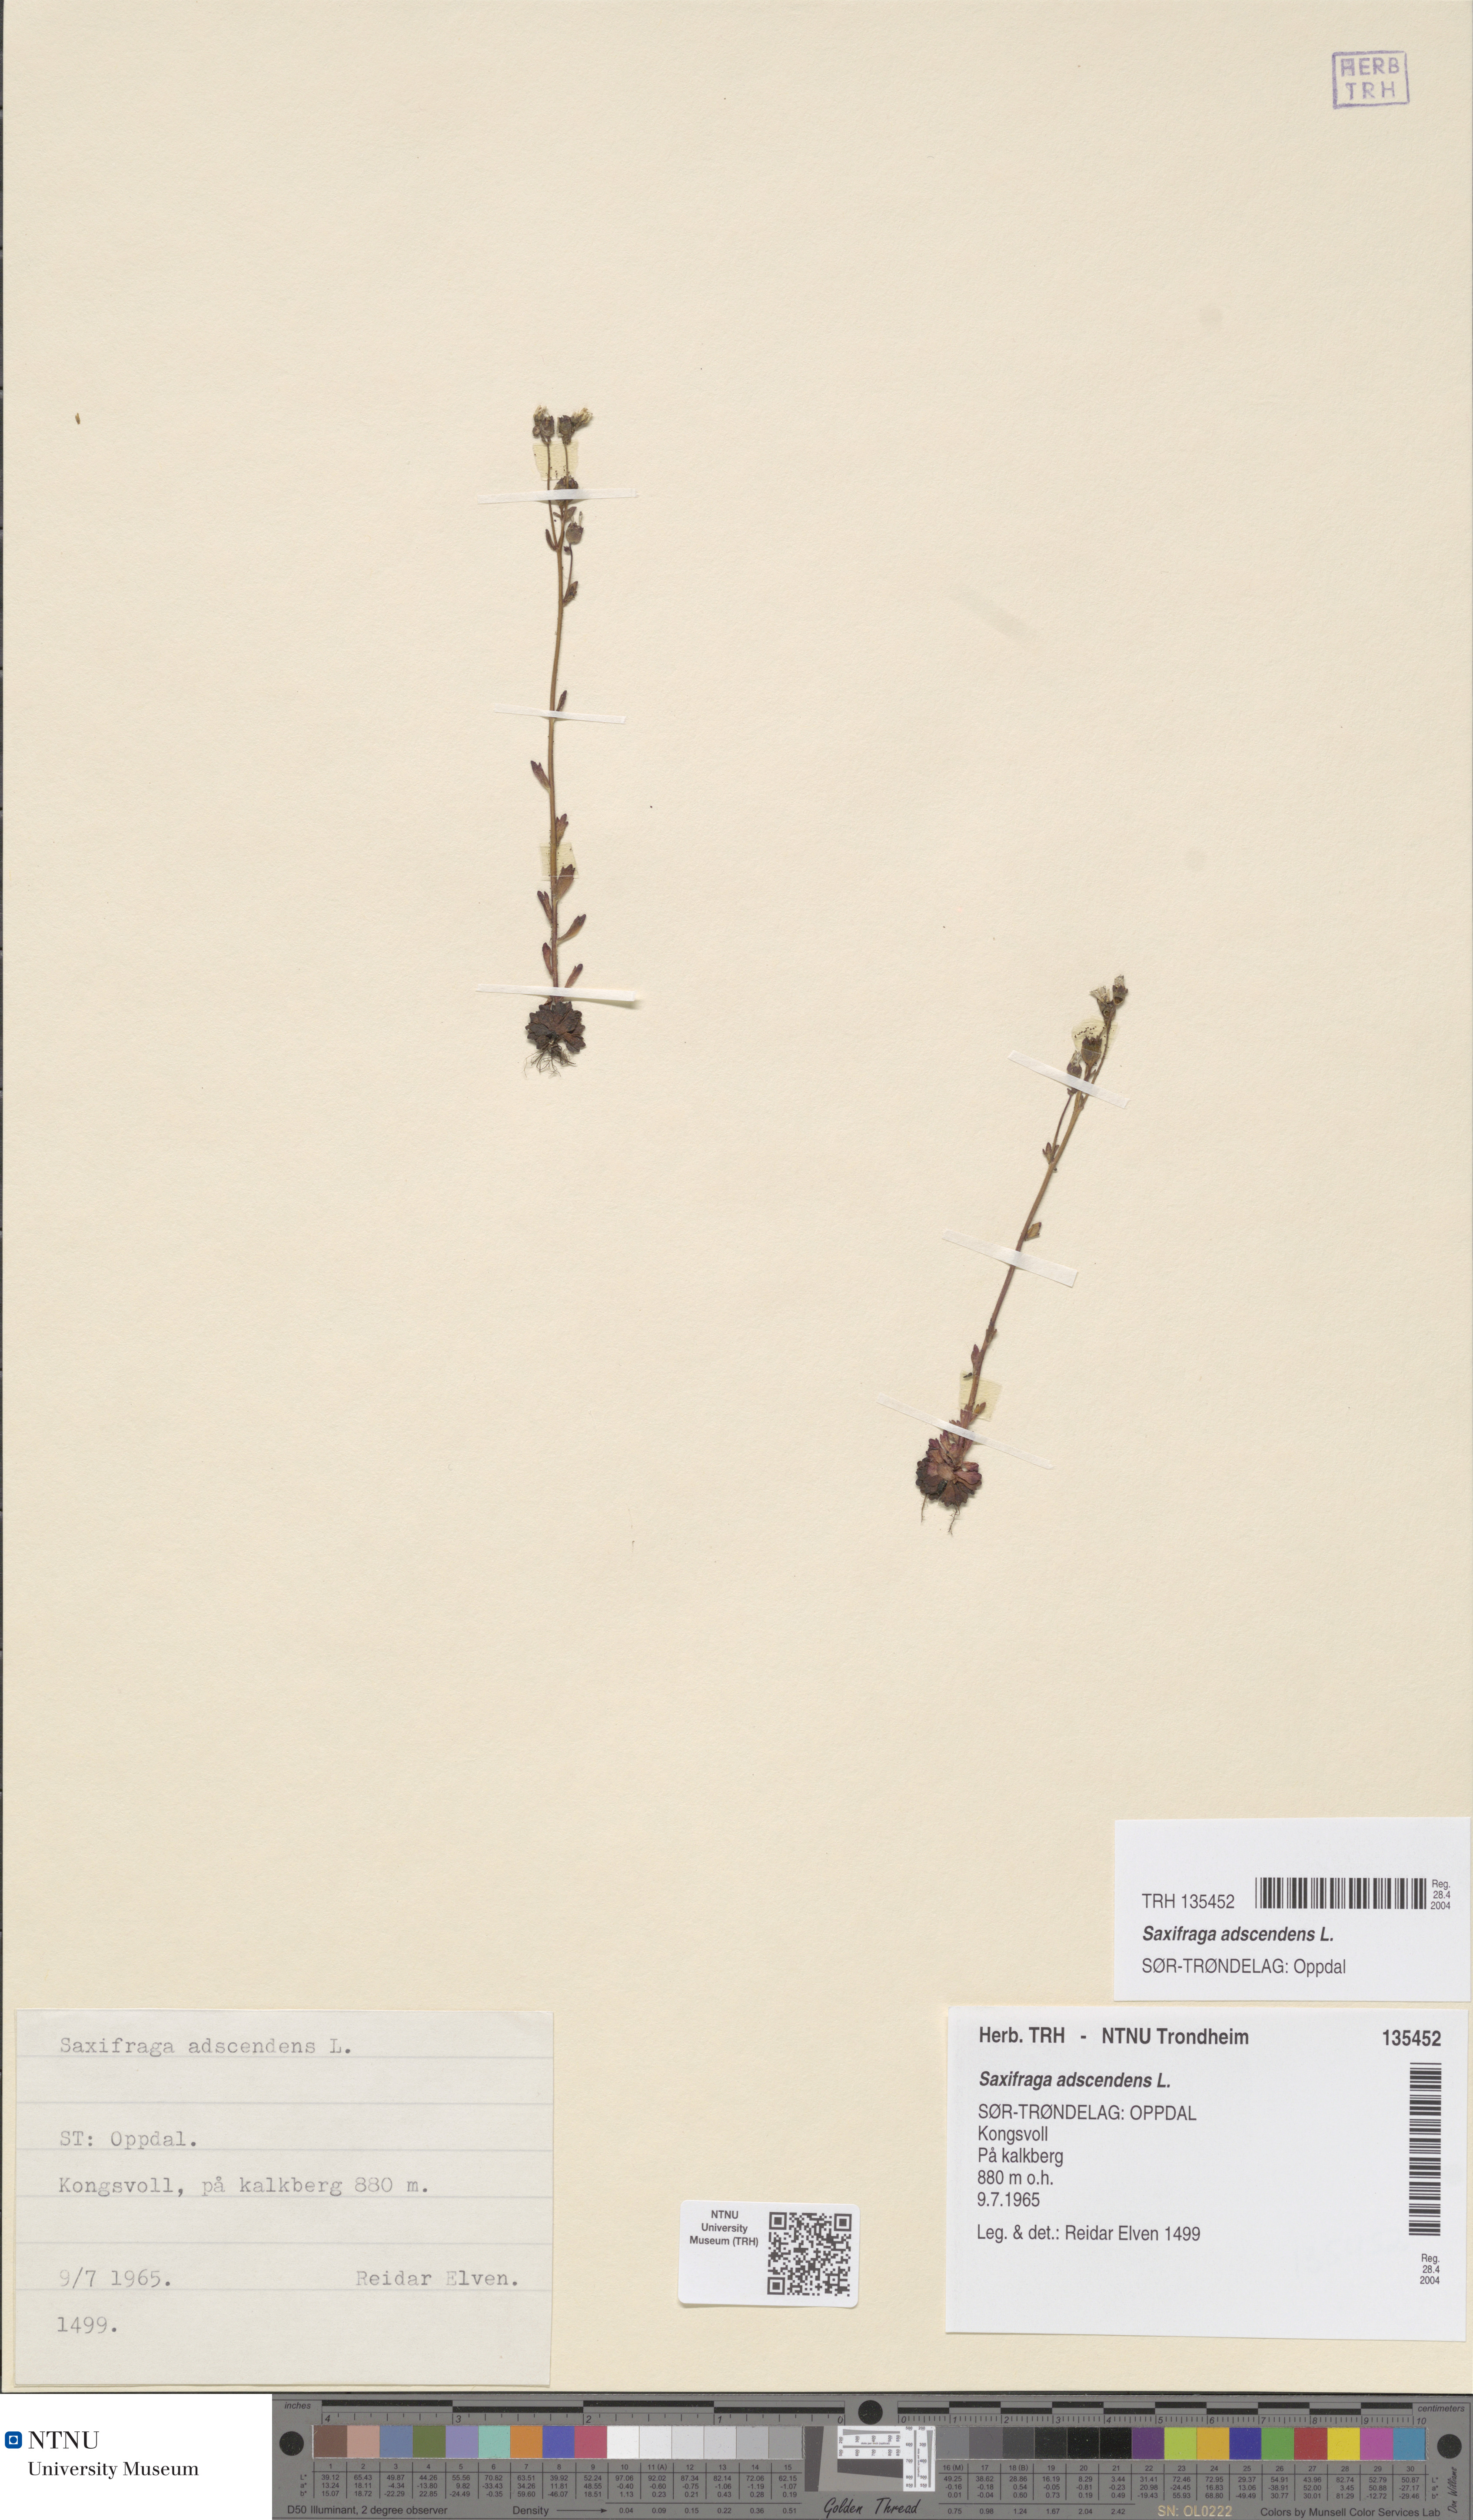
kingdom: Plantae
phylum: Tracheophyta
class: Magnoliopsida
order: Saxifragales
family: Saxifragaceae
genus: Saxifraga
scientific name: Saxifraga adscendens
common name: Ascending saxifrage
